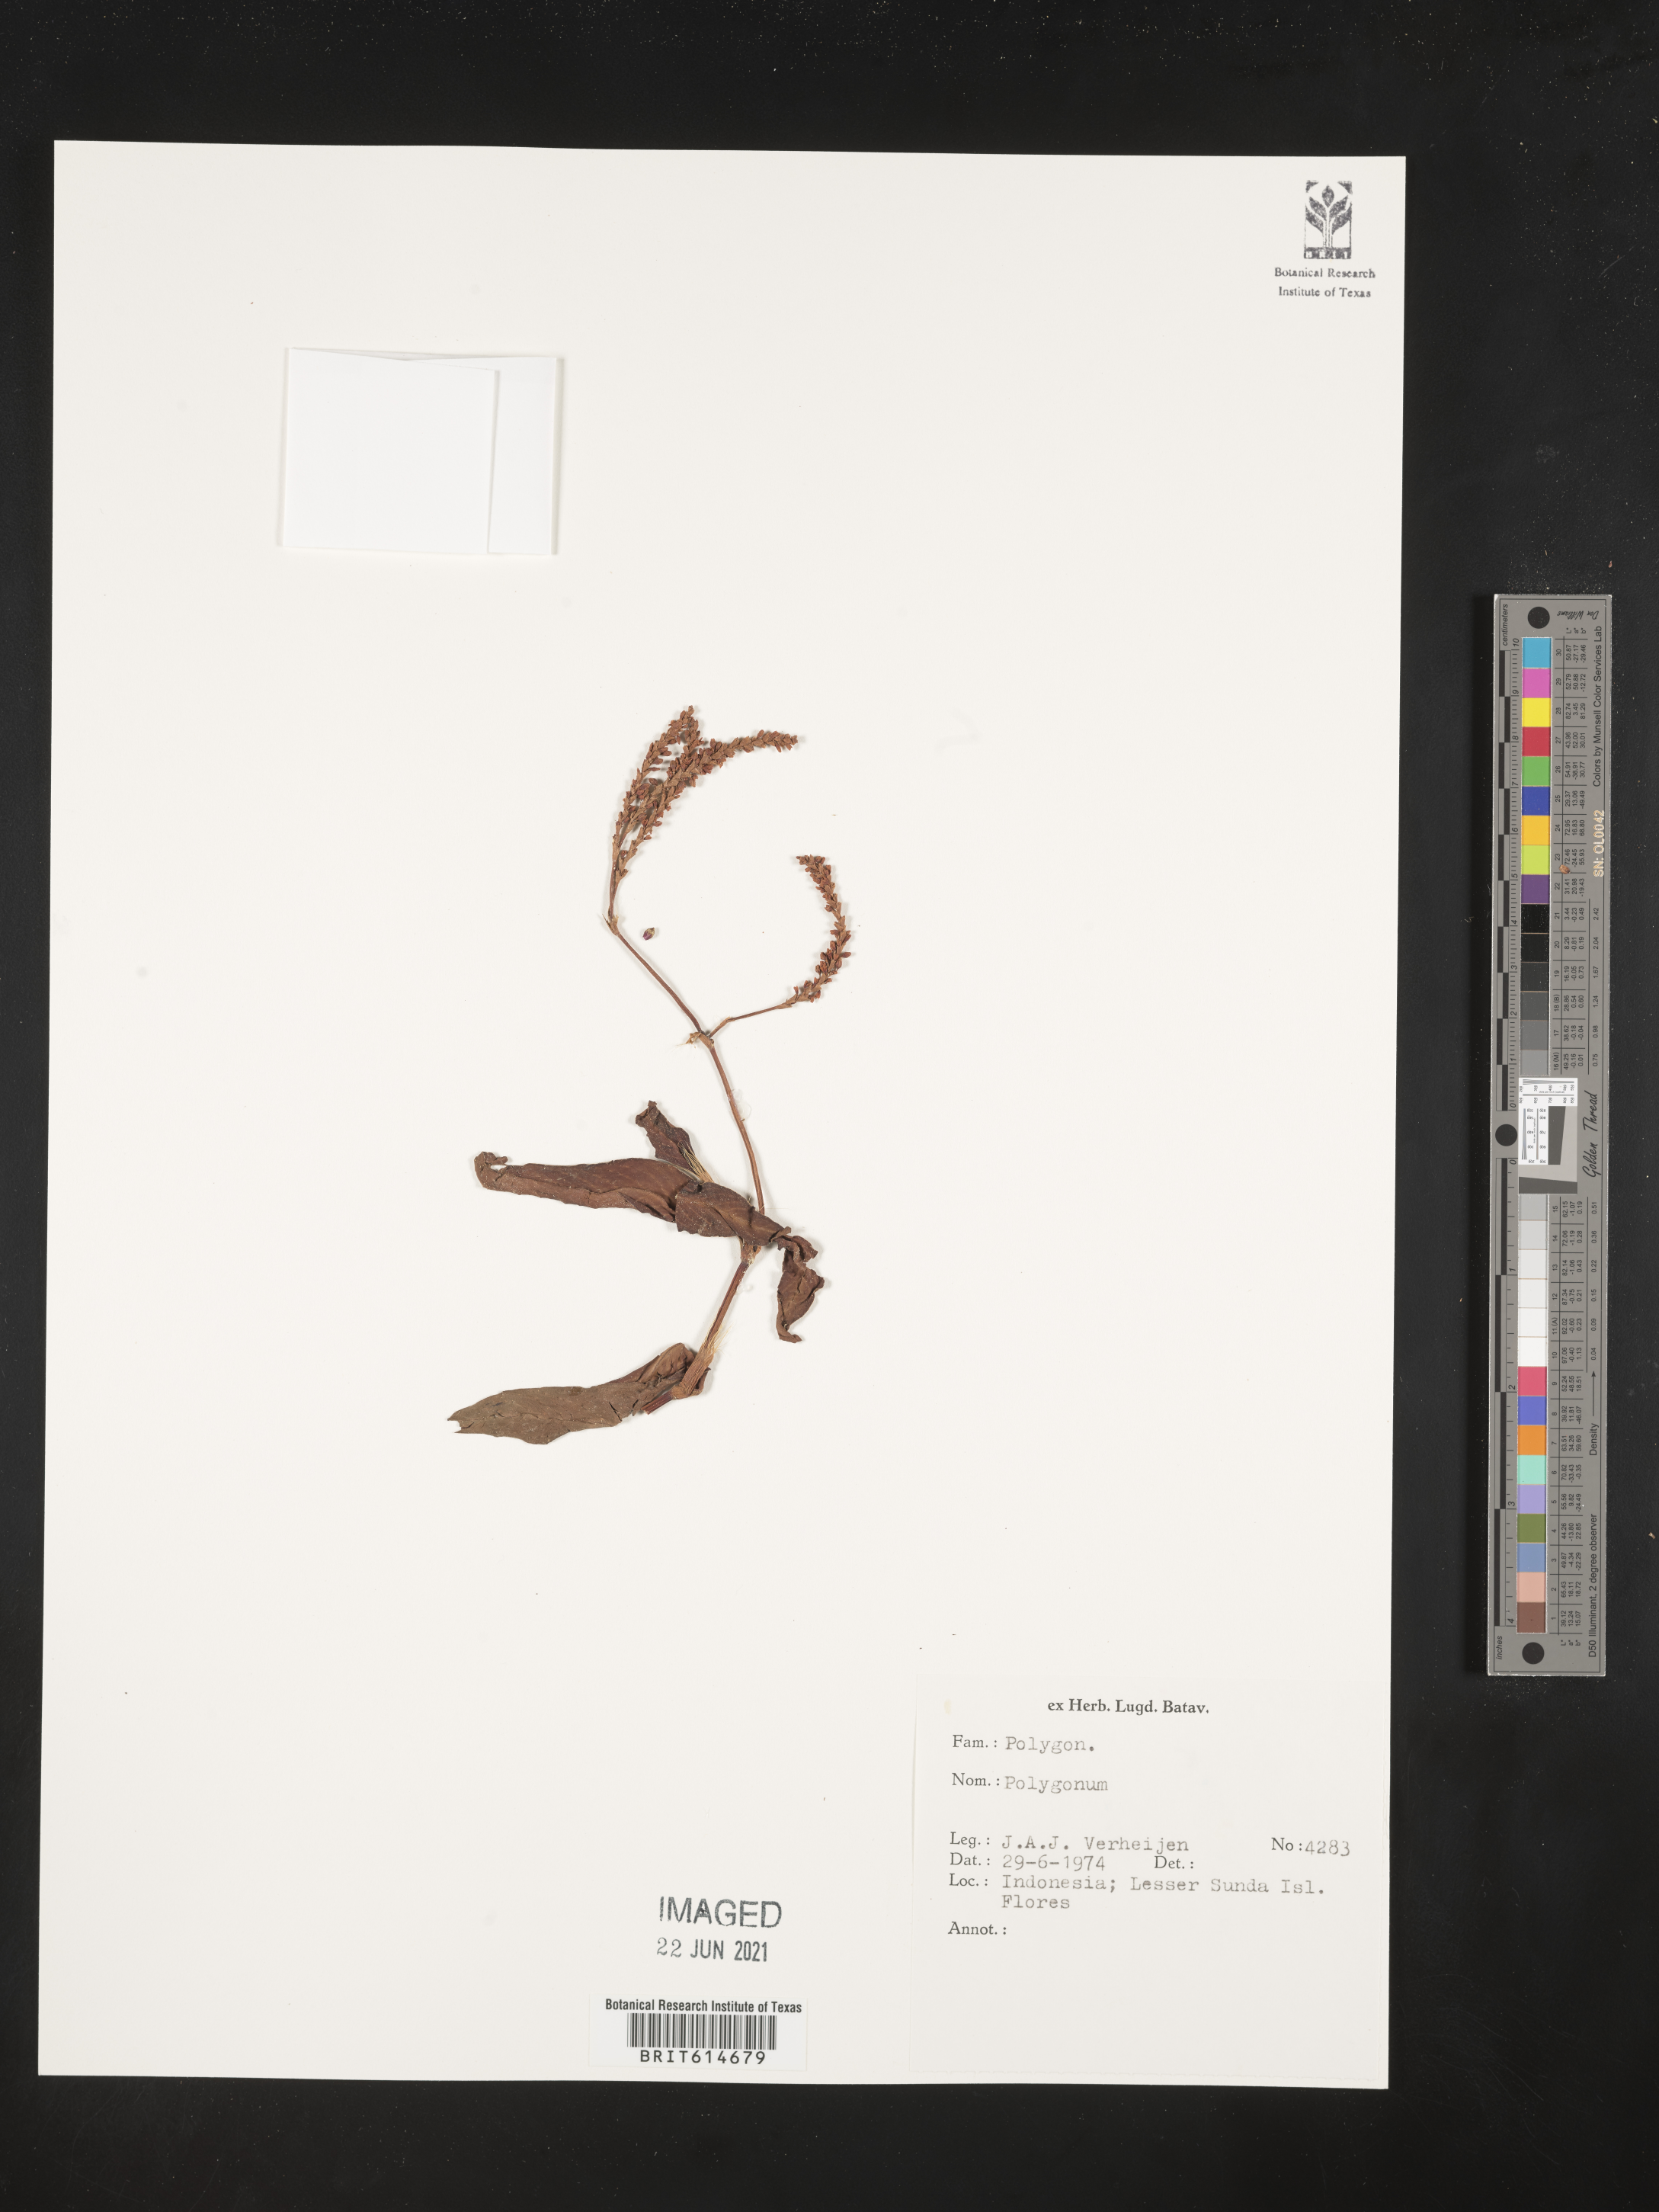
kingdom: Plantae
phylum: Tracheophyta
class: Magnoliopsida
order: Caryophyllales
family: Polygonaceae
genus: Polygonum
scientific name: Polygonum
